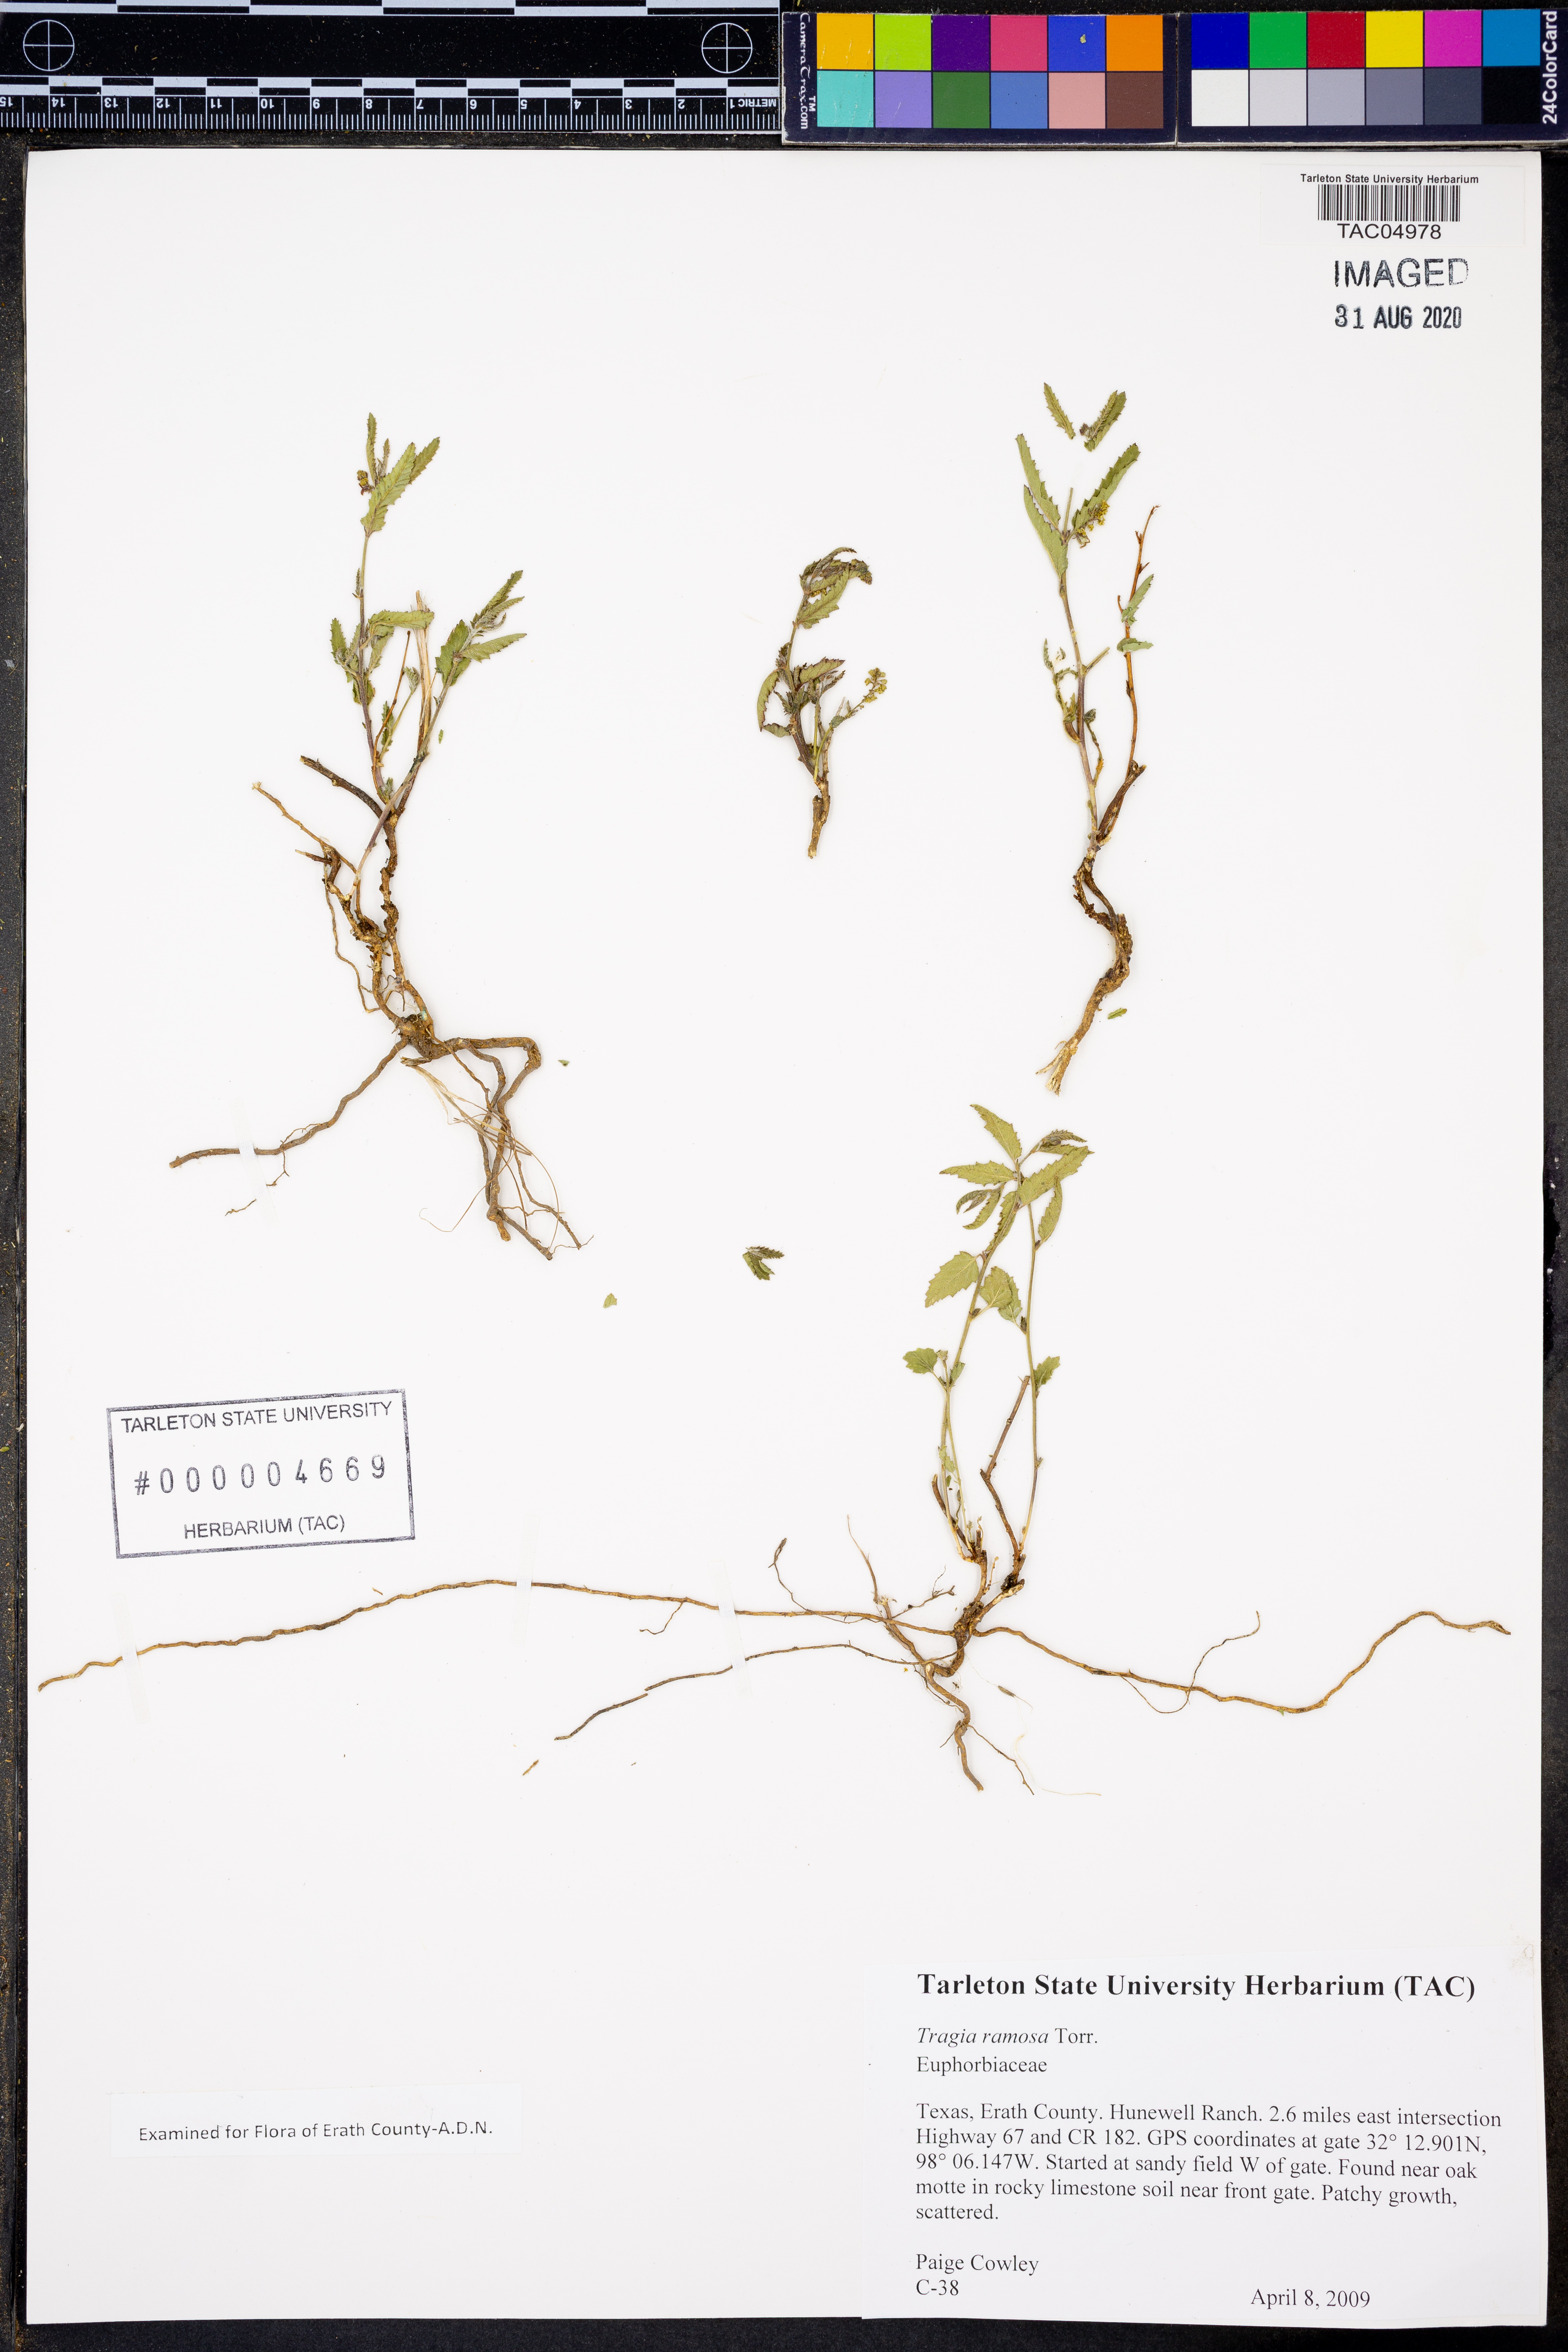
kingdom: Plantae
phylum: Tracheophyta
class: Magnoliopsida
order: Malpighiales
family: Euphorbiaceae
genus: Tragia
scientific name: Tragia ramosa
